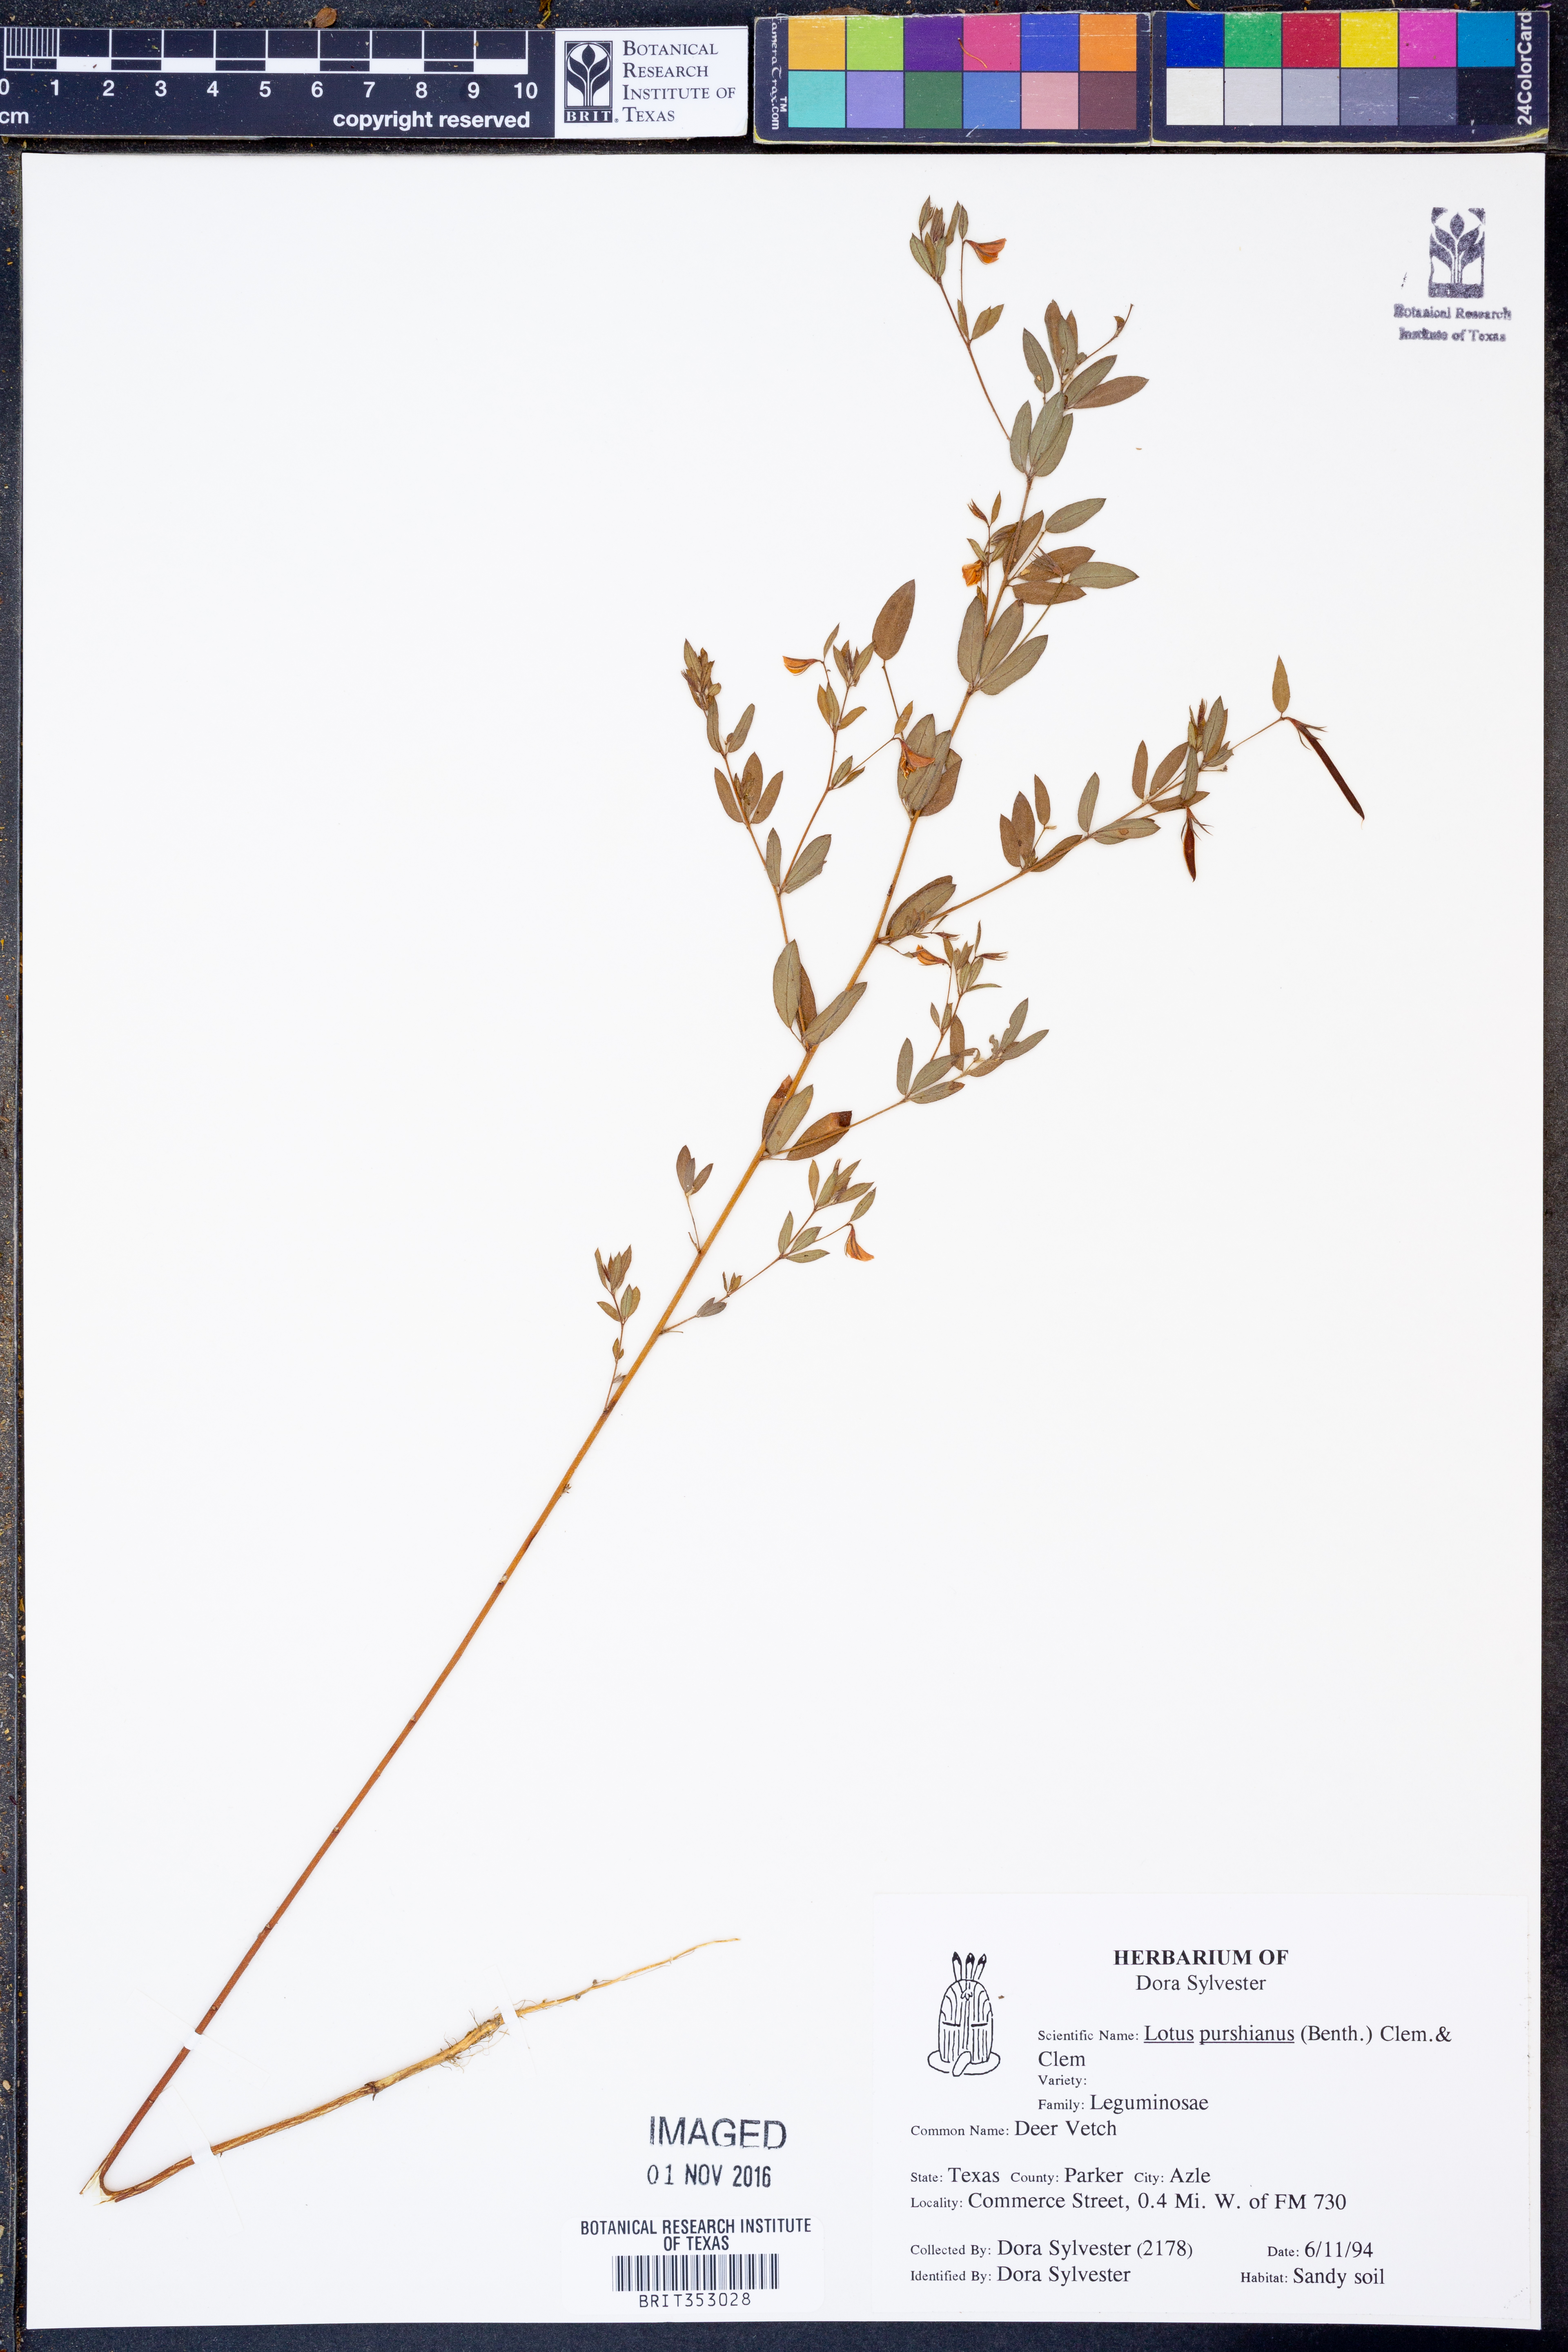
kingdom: Plantae
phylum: Tracheophyta
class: Magnoliopsida
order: Fabales
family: Fabaceae
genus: Acmispon
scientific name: Acmispon americanus
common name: American bird's-foot trefoil
